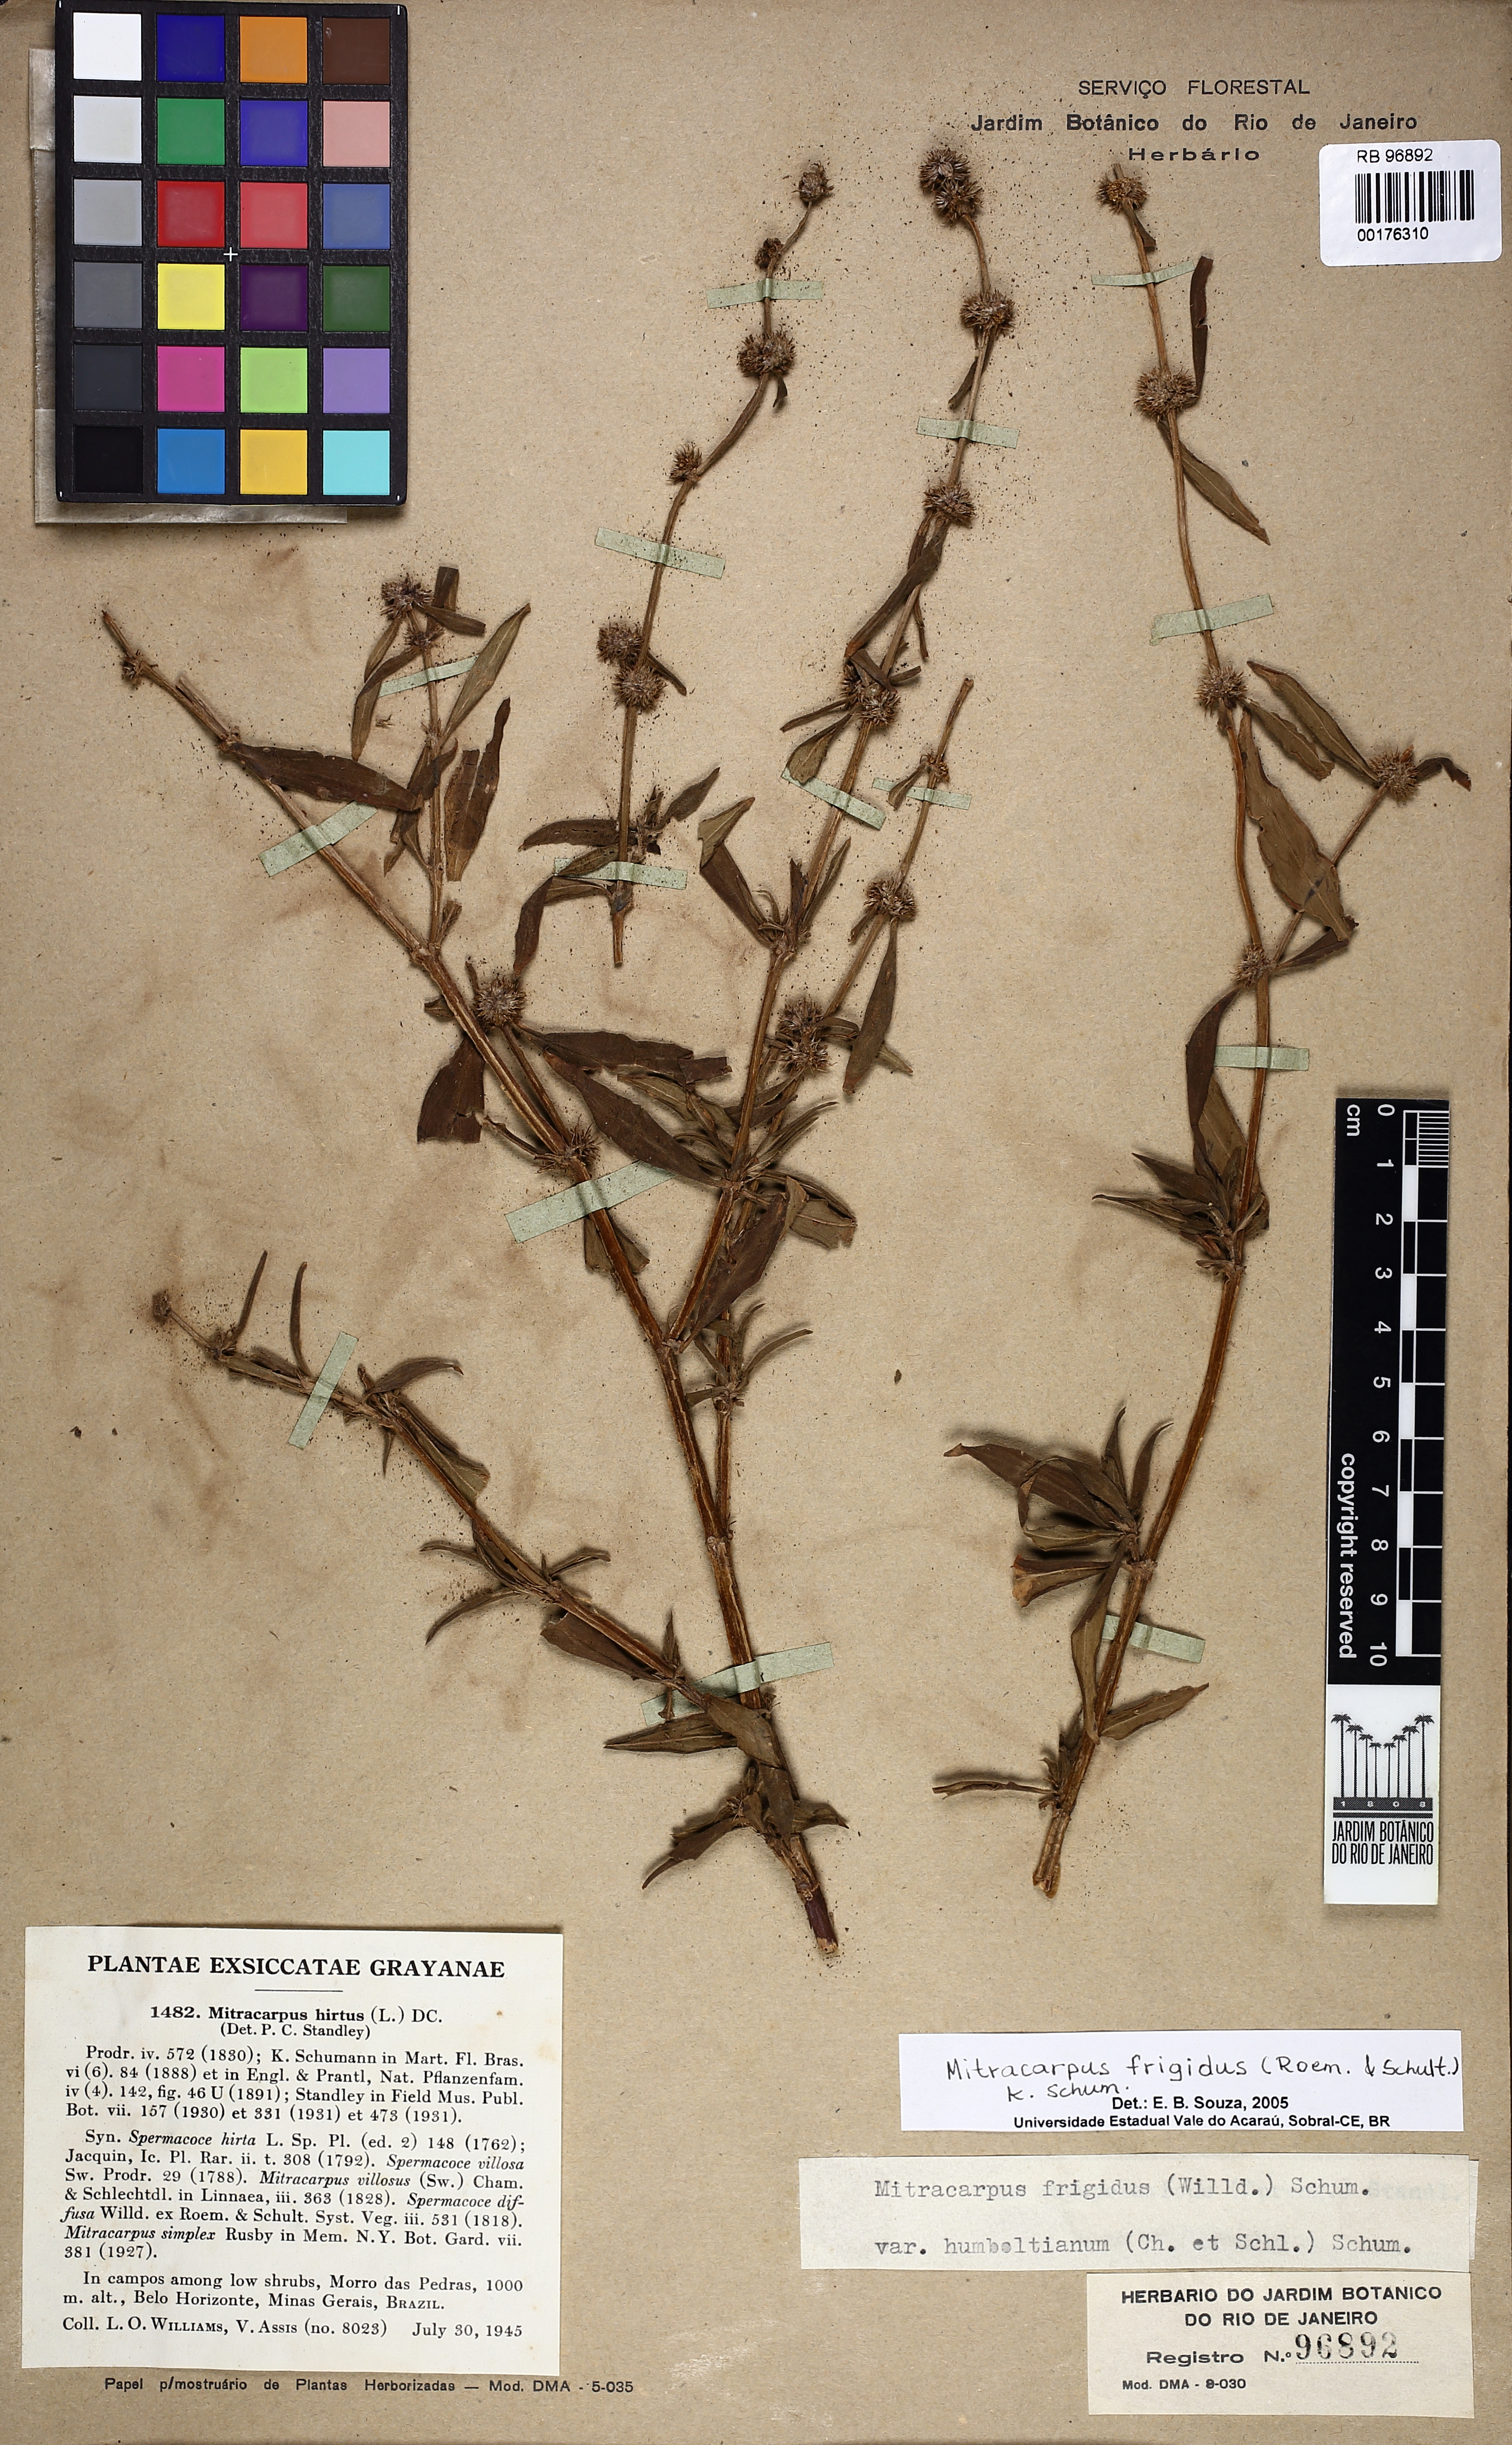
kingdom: Plantae
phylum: Tracheophyta
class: Magnoliopsida
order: Gentianales
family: Rubiaceae
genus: Mitracarpus
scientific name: Mitracarpus frigidus
